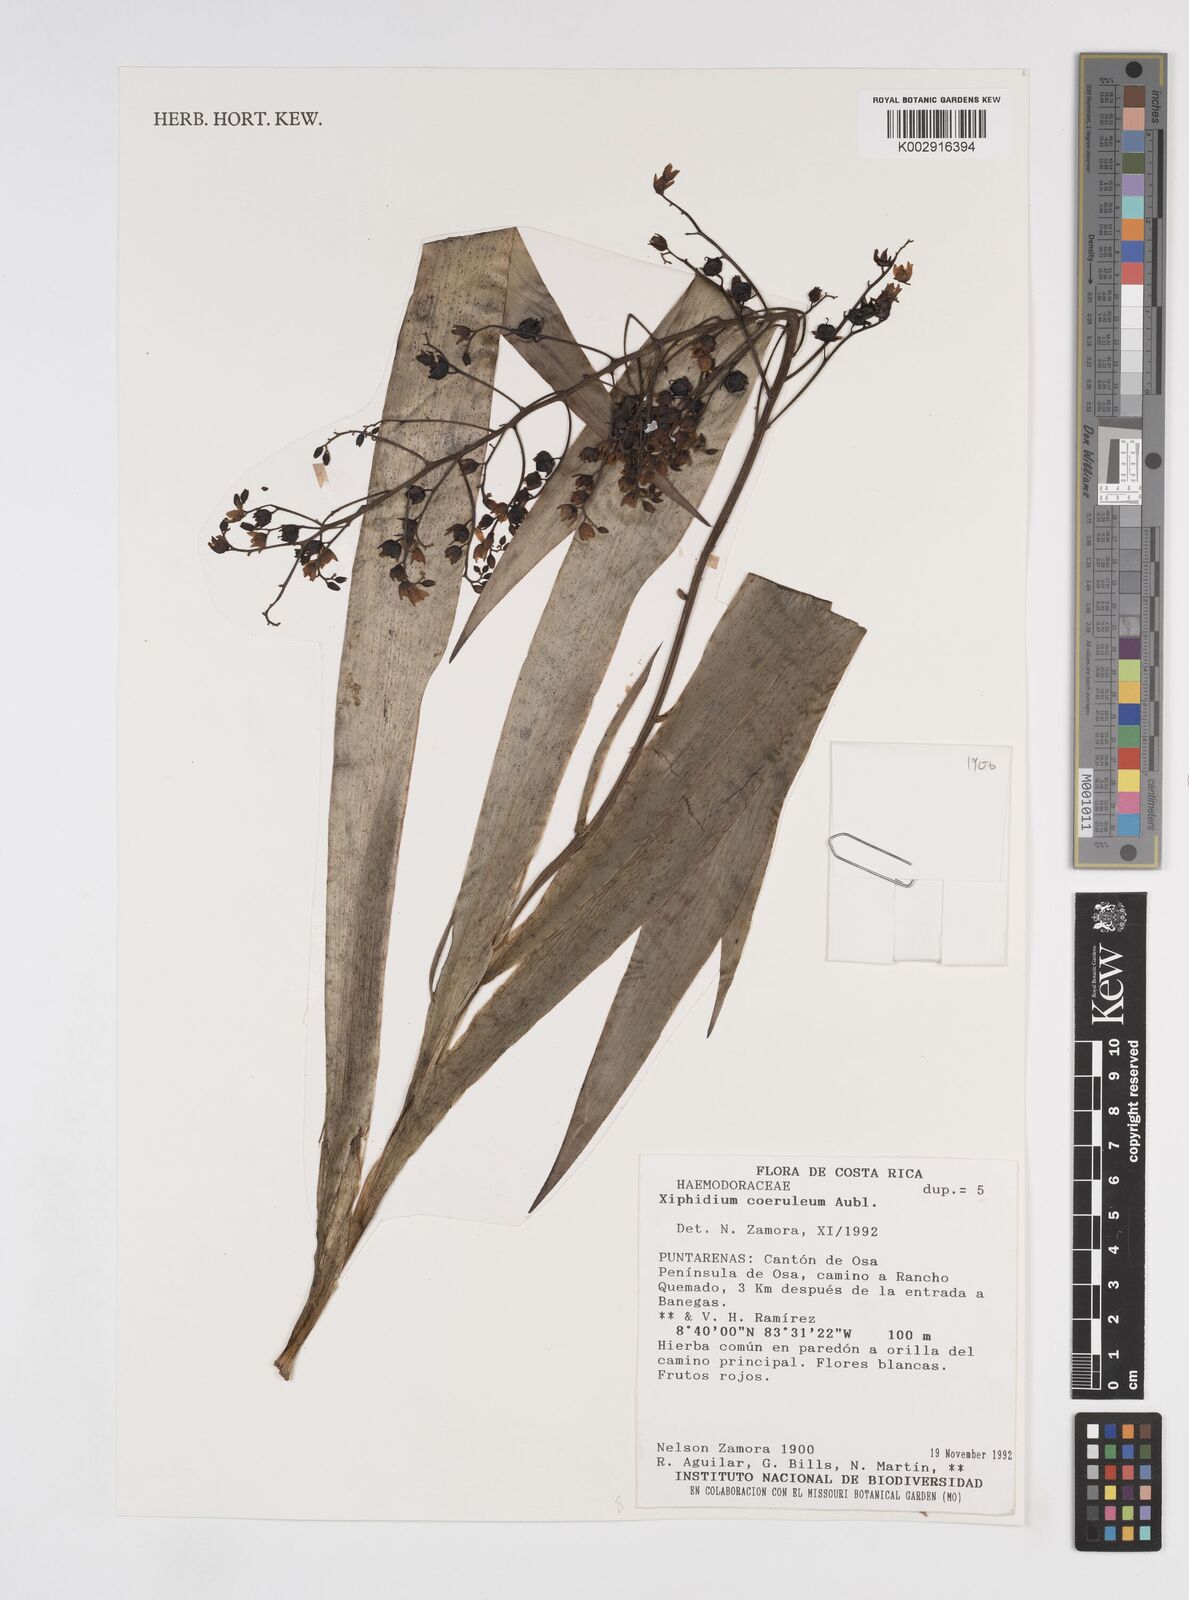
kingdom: Plantae
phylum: Tracheophyta
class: Liliopsida
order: Commelinales
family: Haemodoraceae
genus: Xiphidium
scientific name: Xiphidium caeruleum
